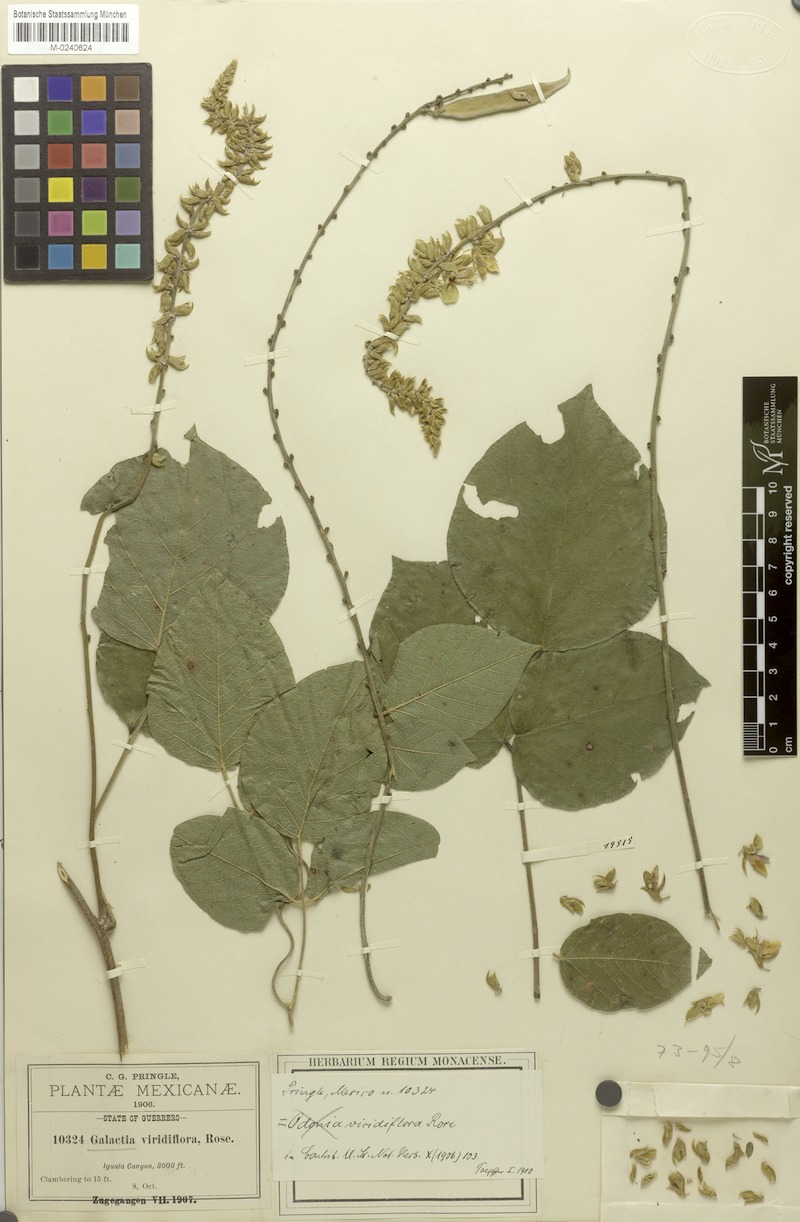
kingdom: Plantae
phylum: Tracheophyta
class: Magnoliopsida
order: Fabales
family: Fabaceae
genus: Lackeya
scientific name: Lackeya viridiflora
